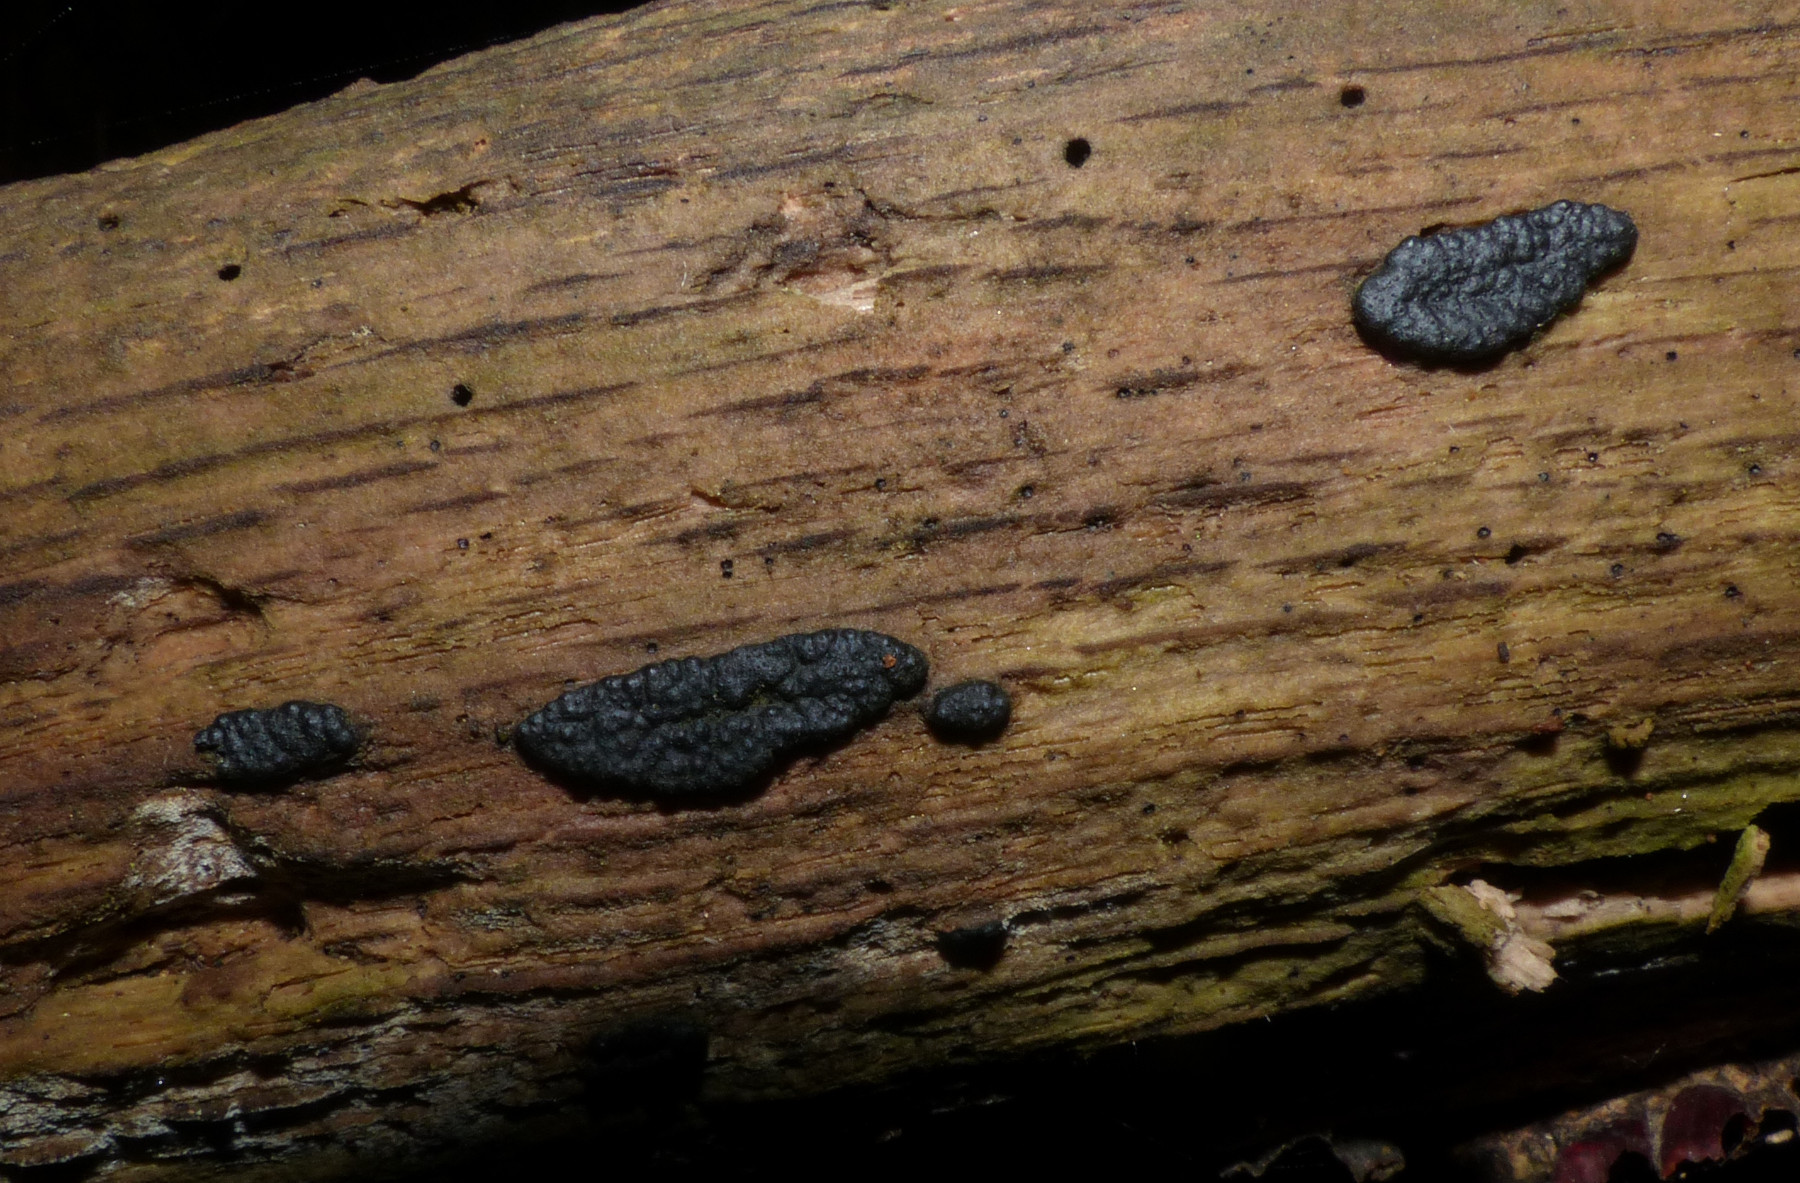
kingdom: Fungi
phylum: Ascomycota
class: Sordariomycetes
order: Xylariales
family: Xylariaceae
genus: Nemania
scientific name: Nemania
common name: kuldyne
